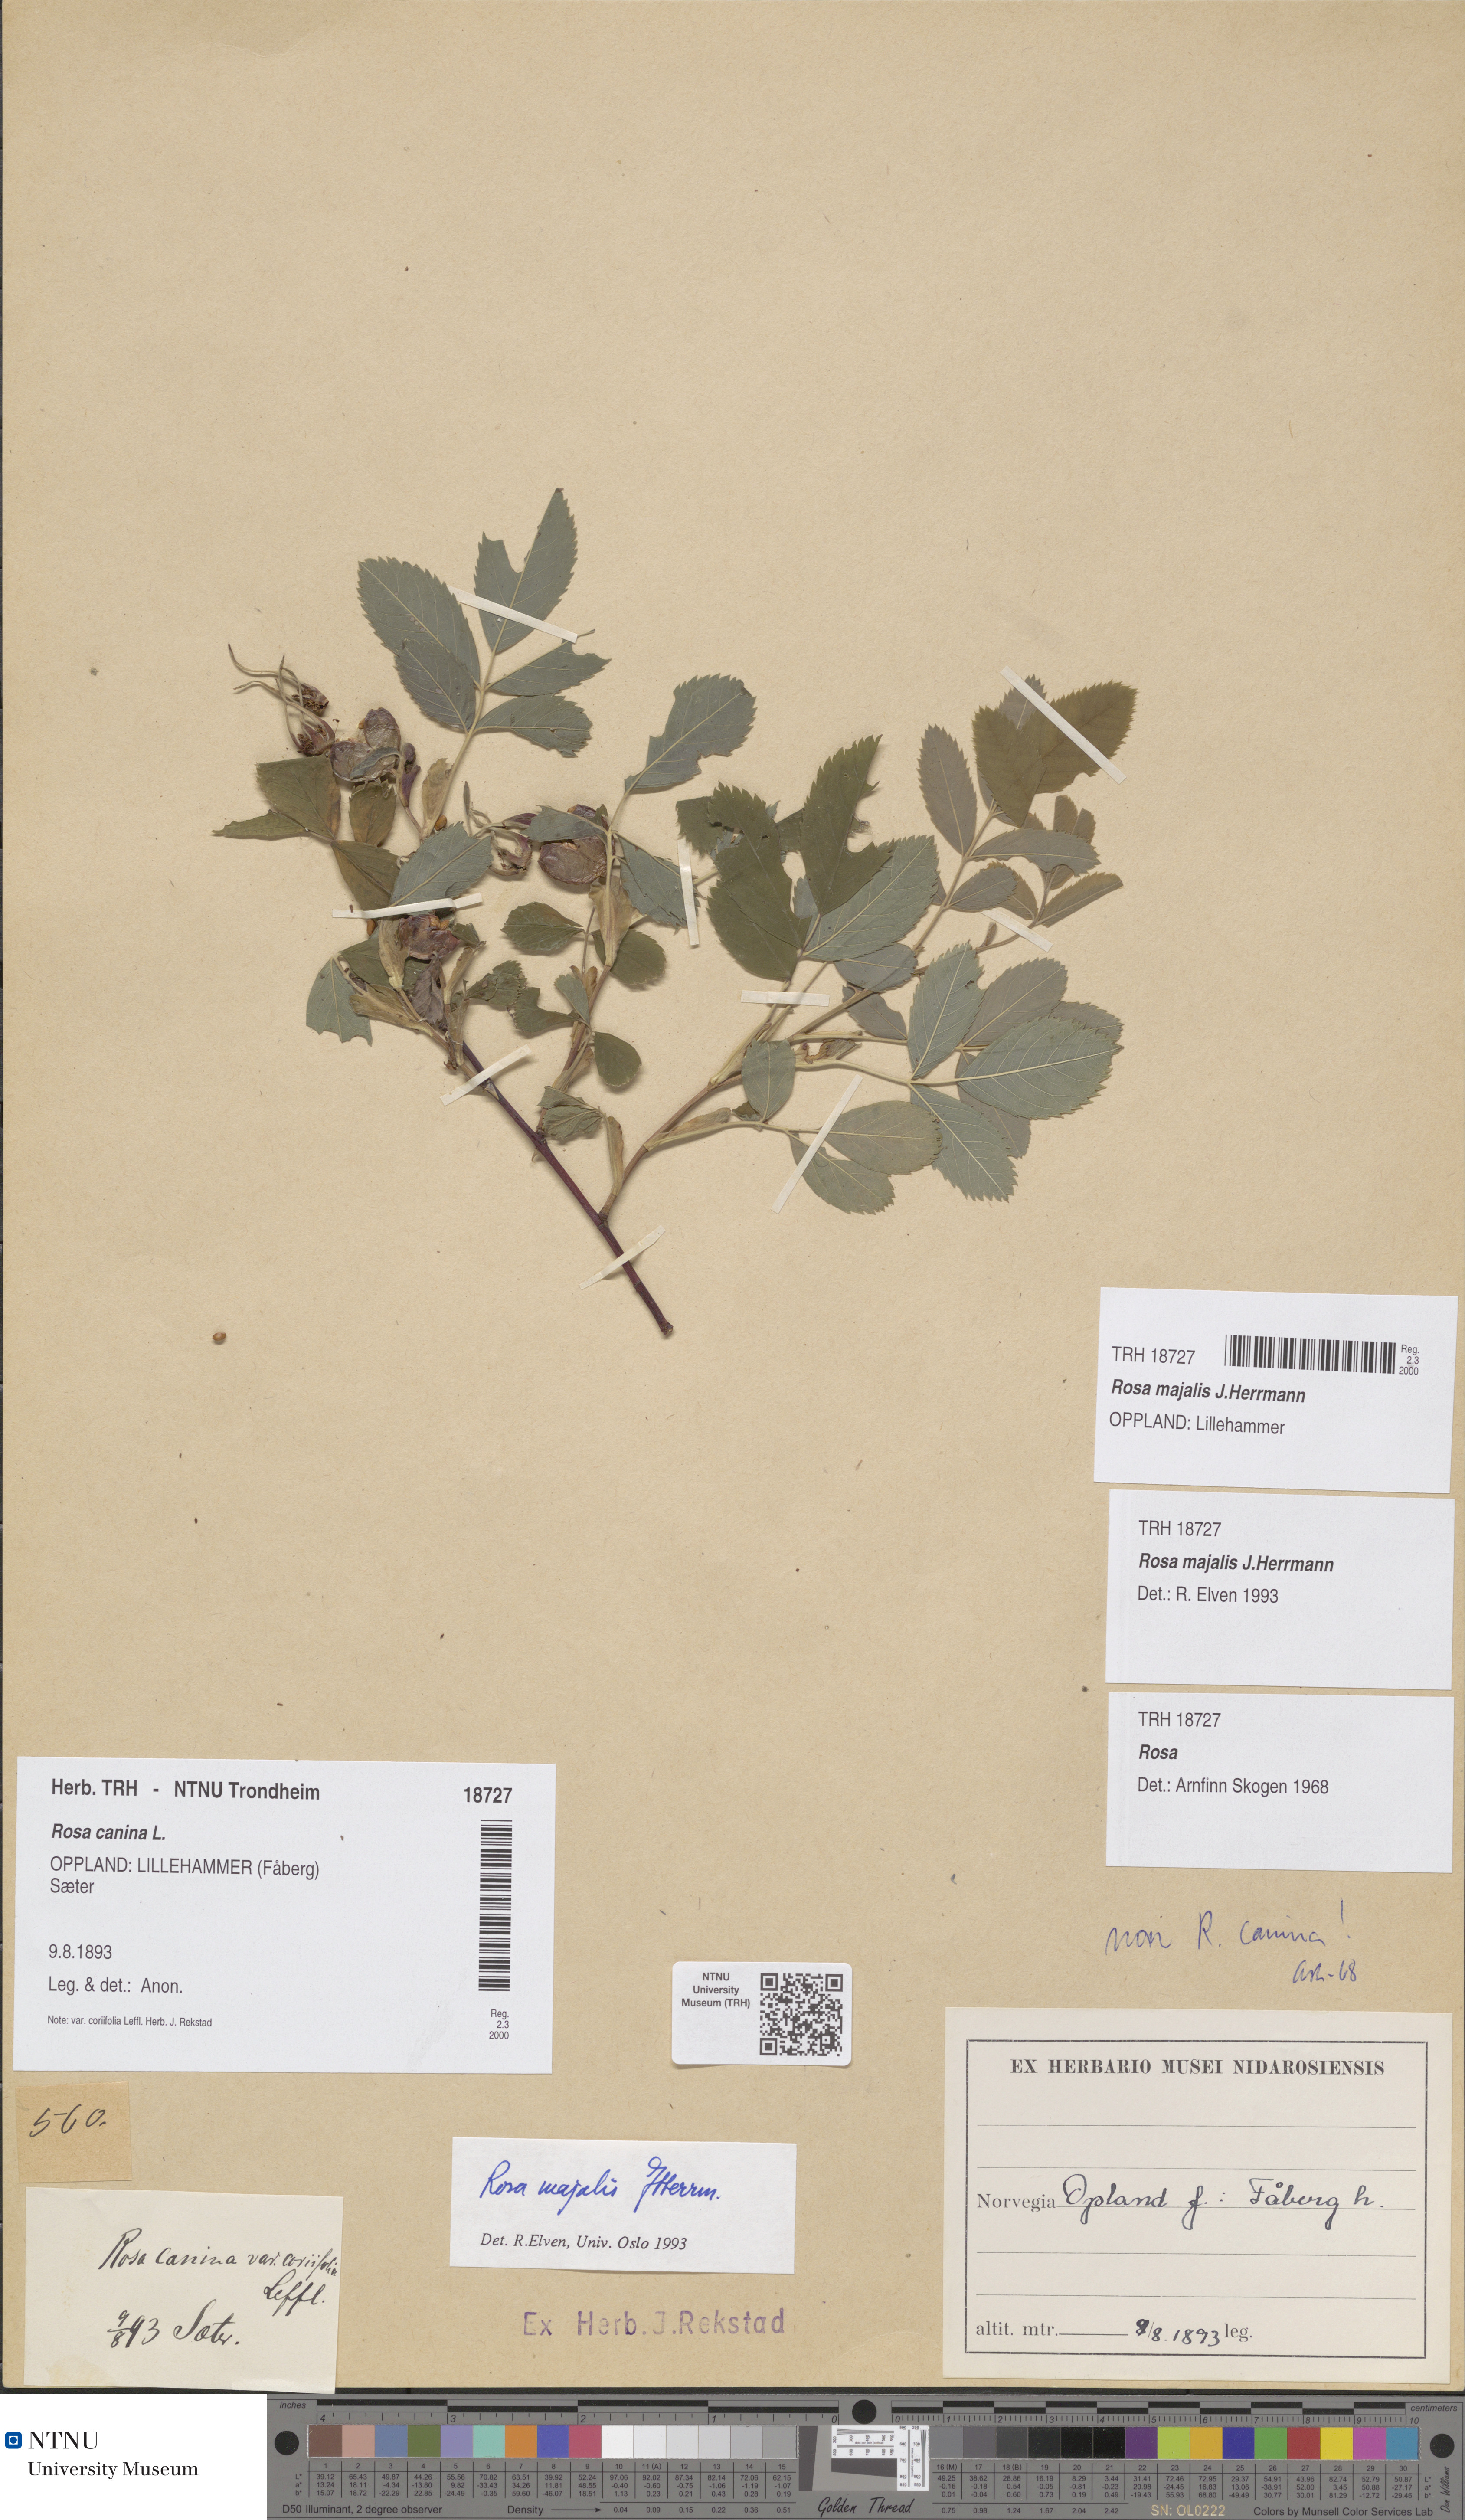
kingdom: Plantae
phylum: Tracheophyta
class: Magnoliopsida
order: Rosales
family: Rosaceae
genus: Rosa
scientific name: Rosa majalis
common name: Cinnamon rose
